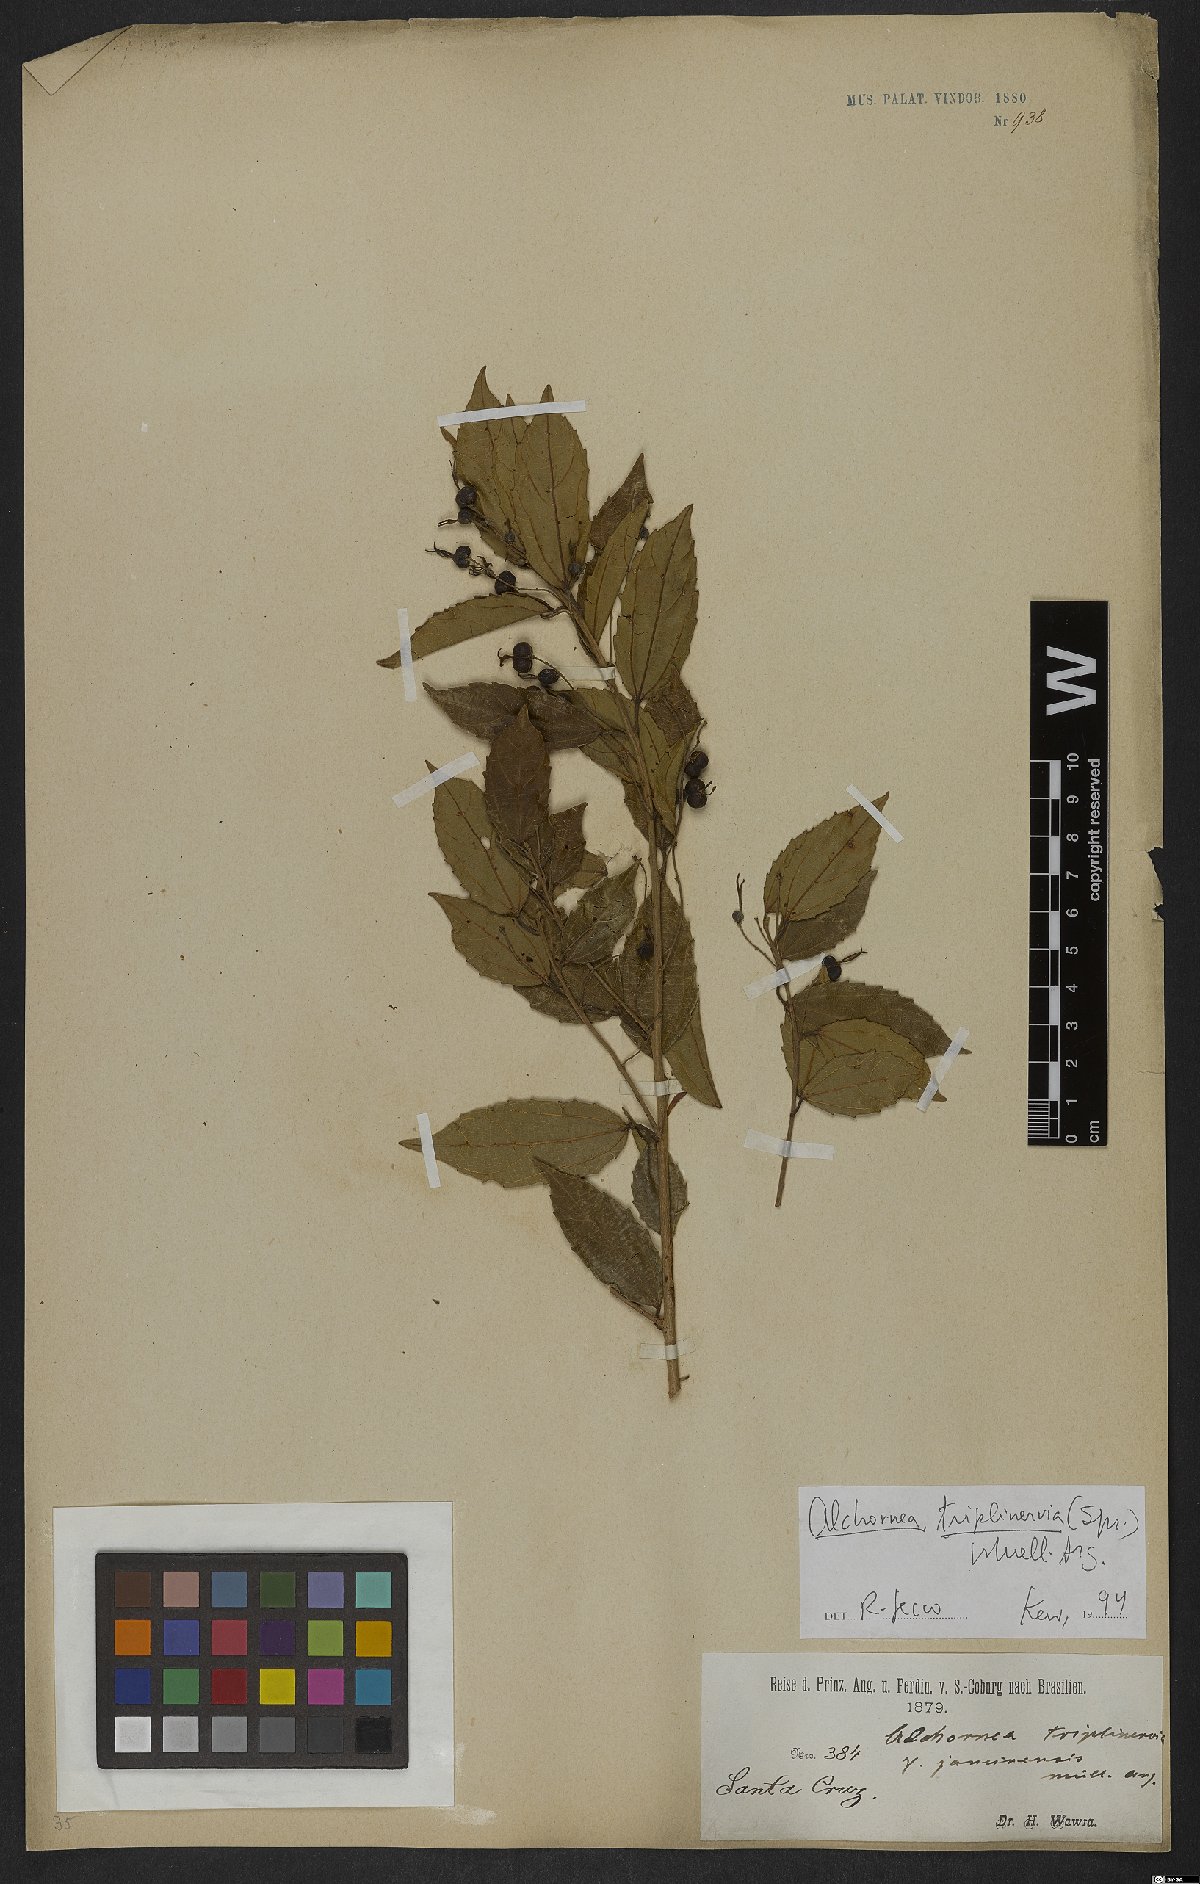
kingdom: Plantae
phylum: Tracheophyta
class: Magnoliopsida
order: Malpighiales
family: Euphorbiaceae
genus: Alchornea
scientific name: Alchornea triplinervia
